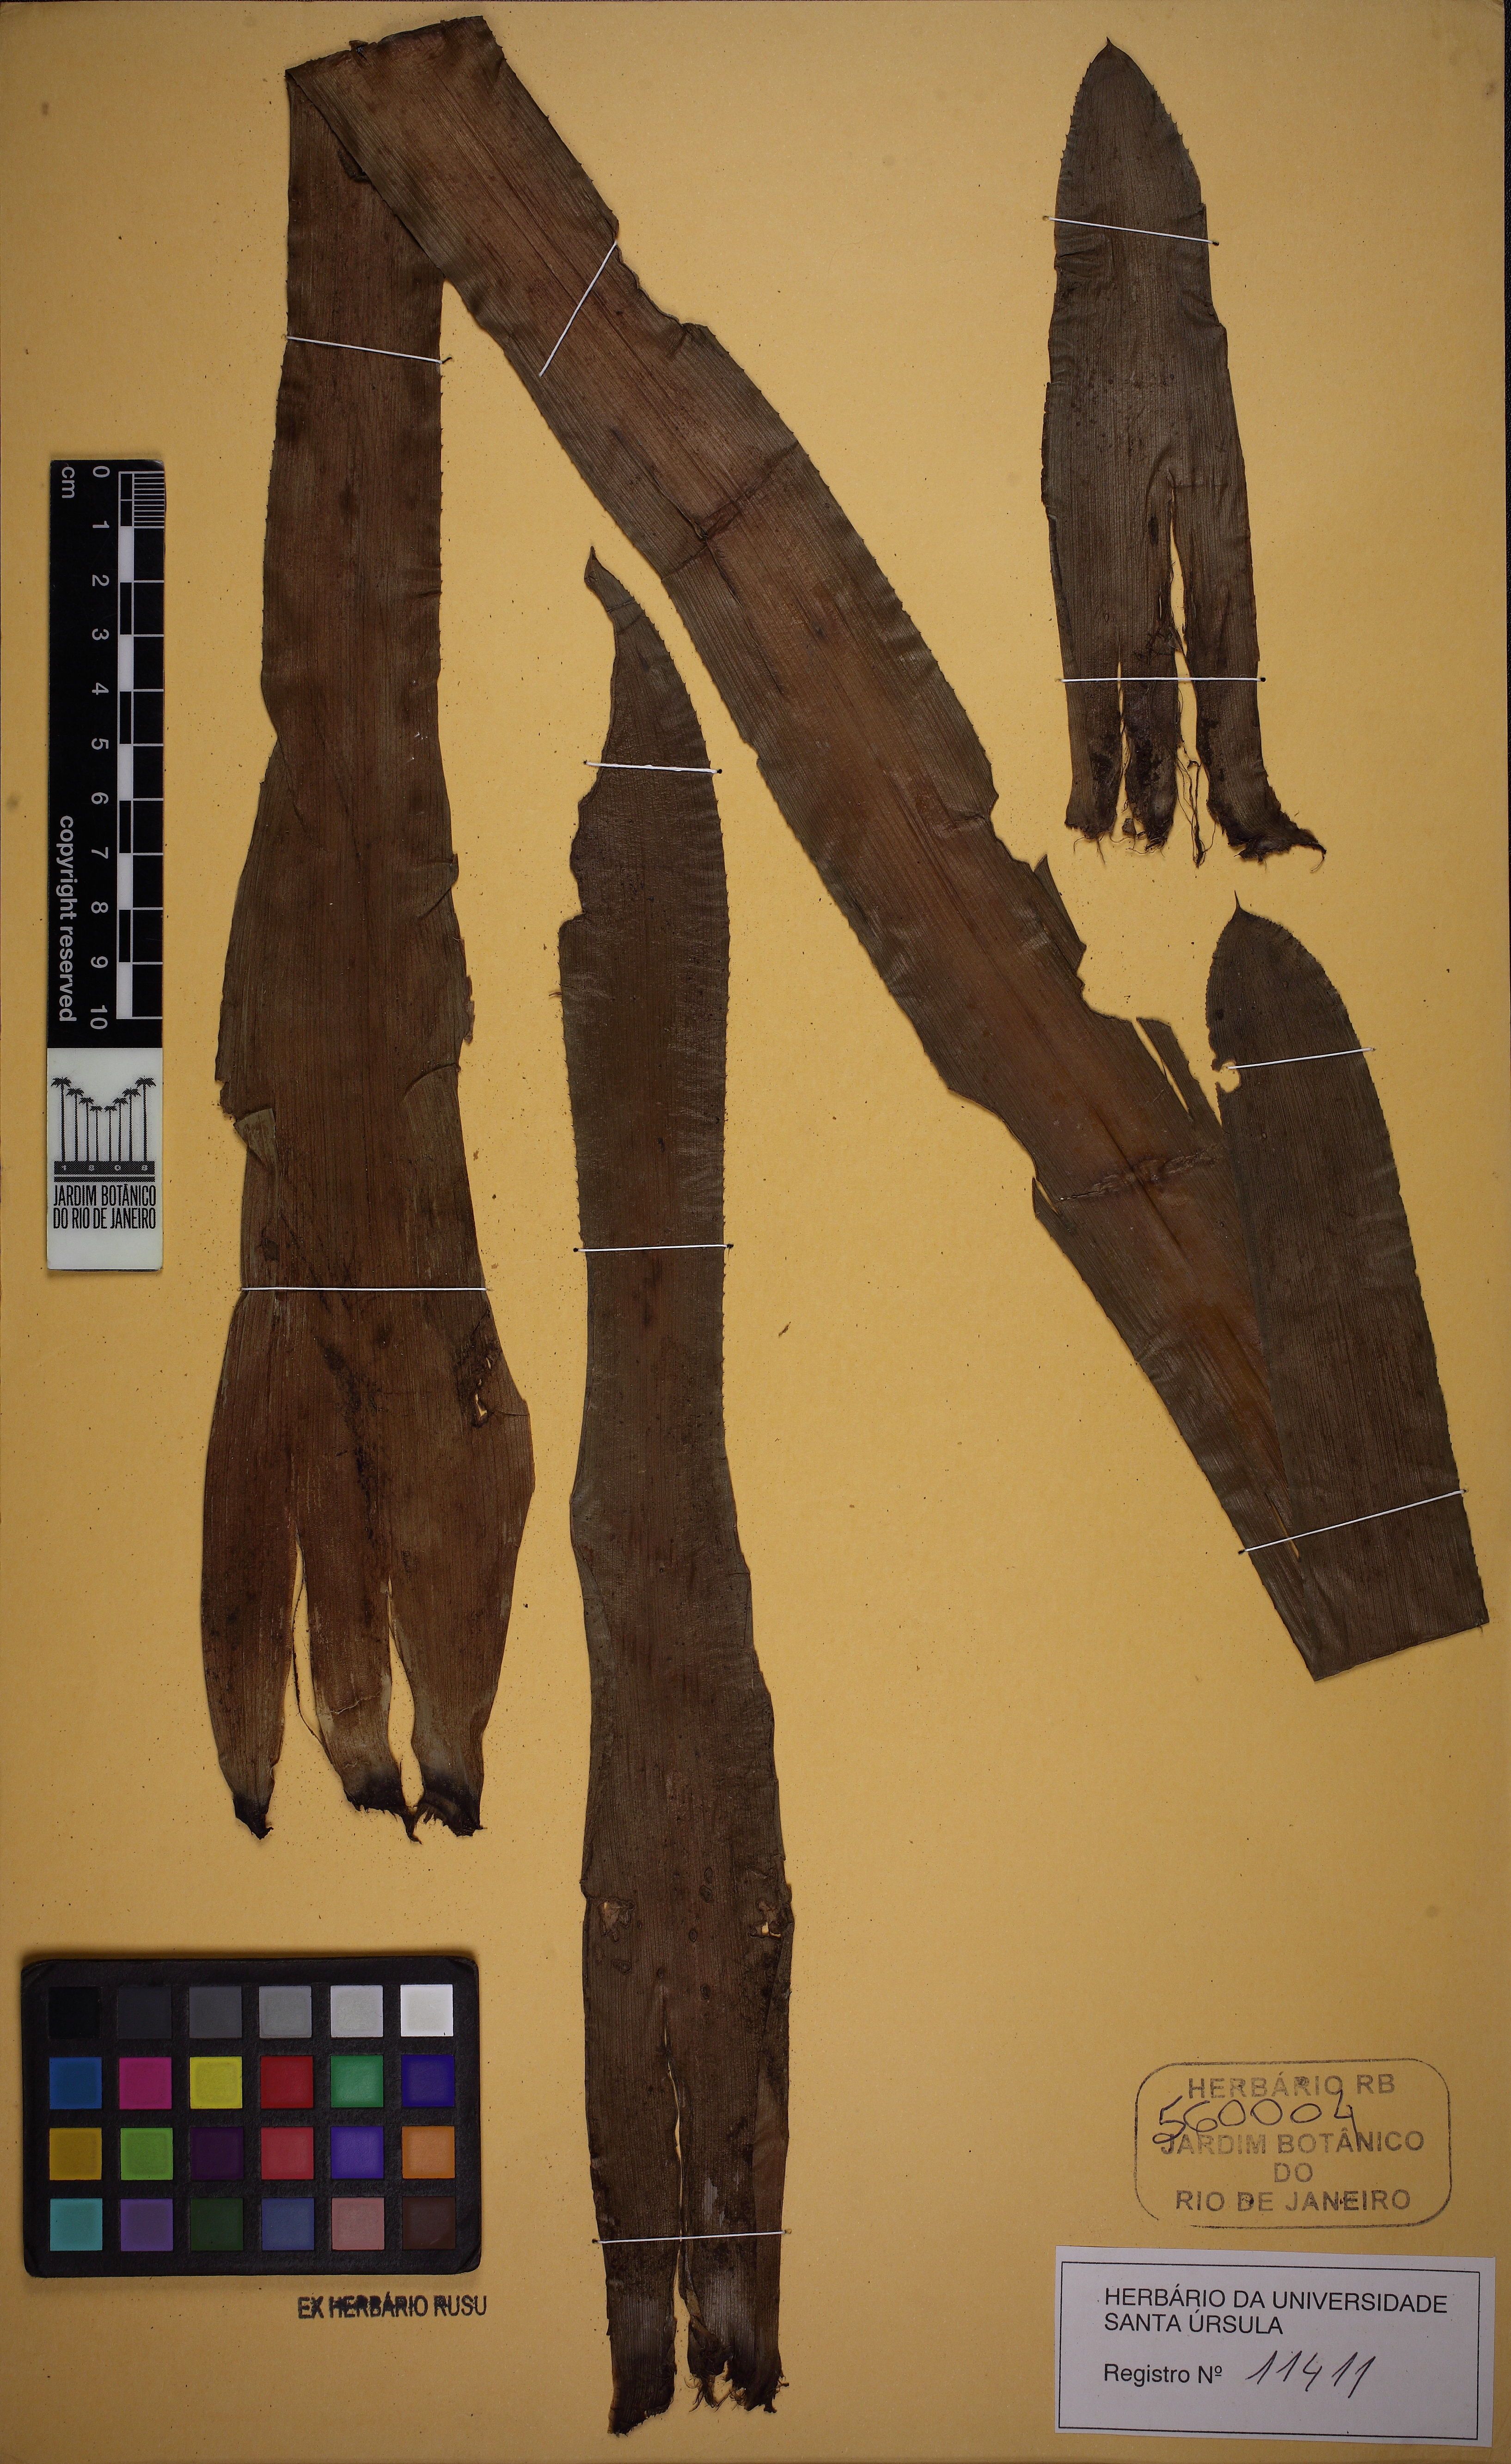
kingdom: Plantae
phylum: Tracheophyta
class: Liliopsida
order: Poales
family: Bromeliaceae
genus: Billbergia
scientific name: Billbergia pyramidalis
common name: Foolproofplant
